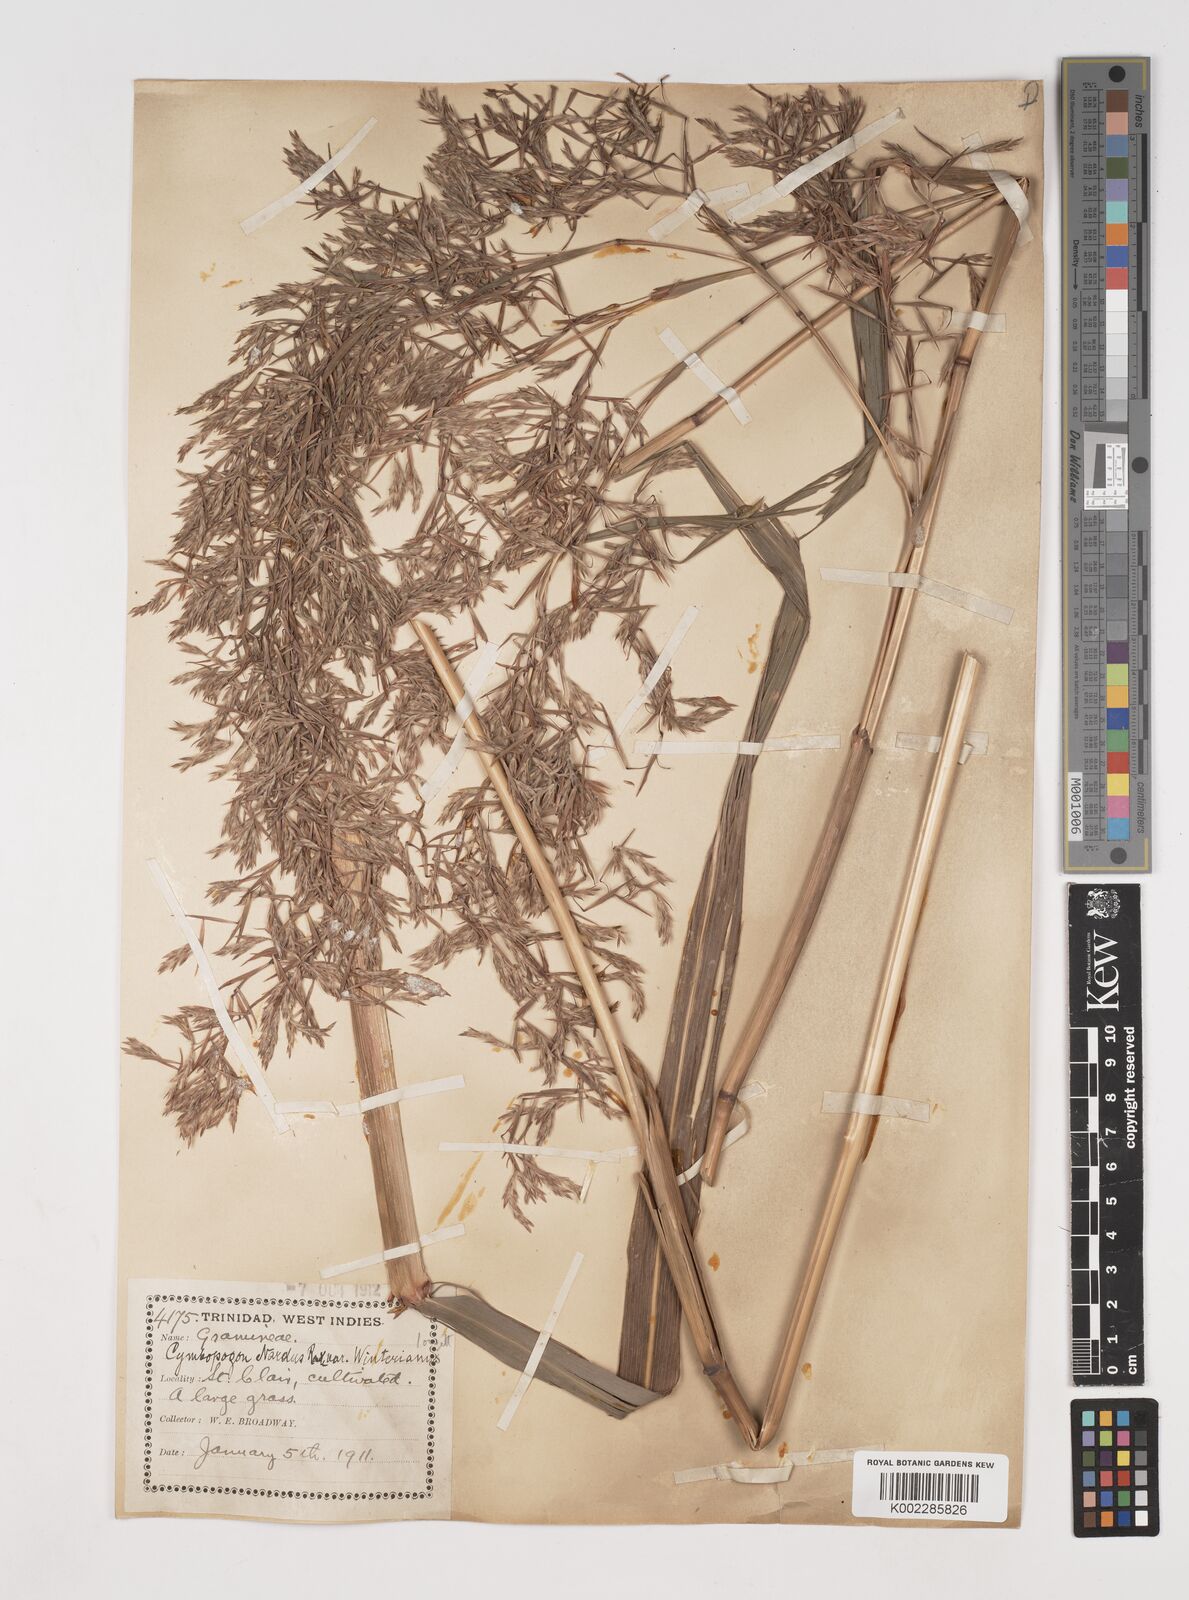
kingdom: Plantae
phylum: Tracheophyta
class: Liliopsida
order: Poales
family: Poaceae
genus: Cymbopogon
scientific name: Cymbopogon winterianus
